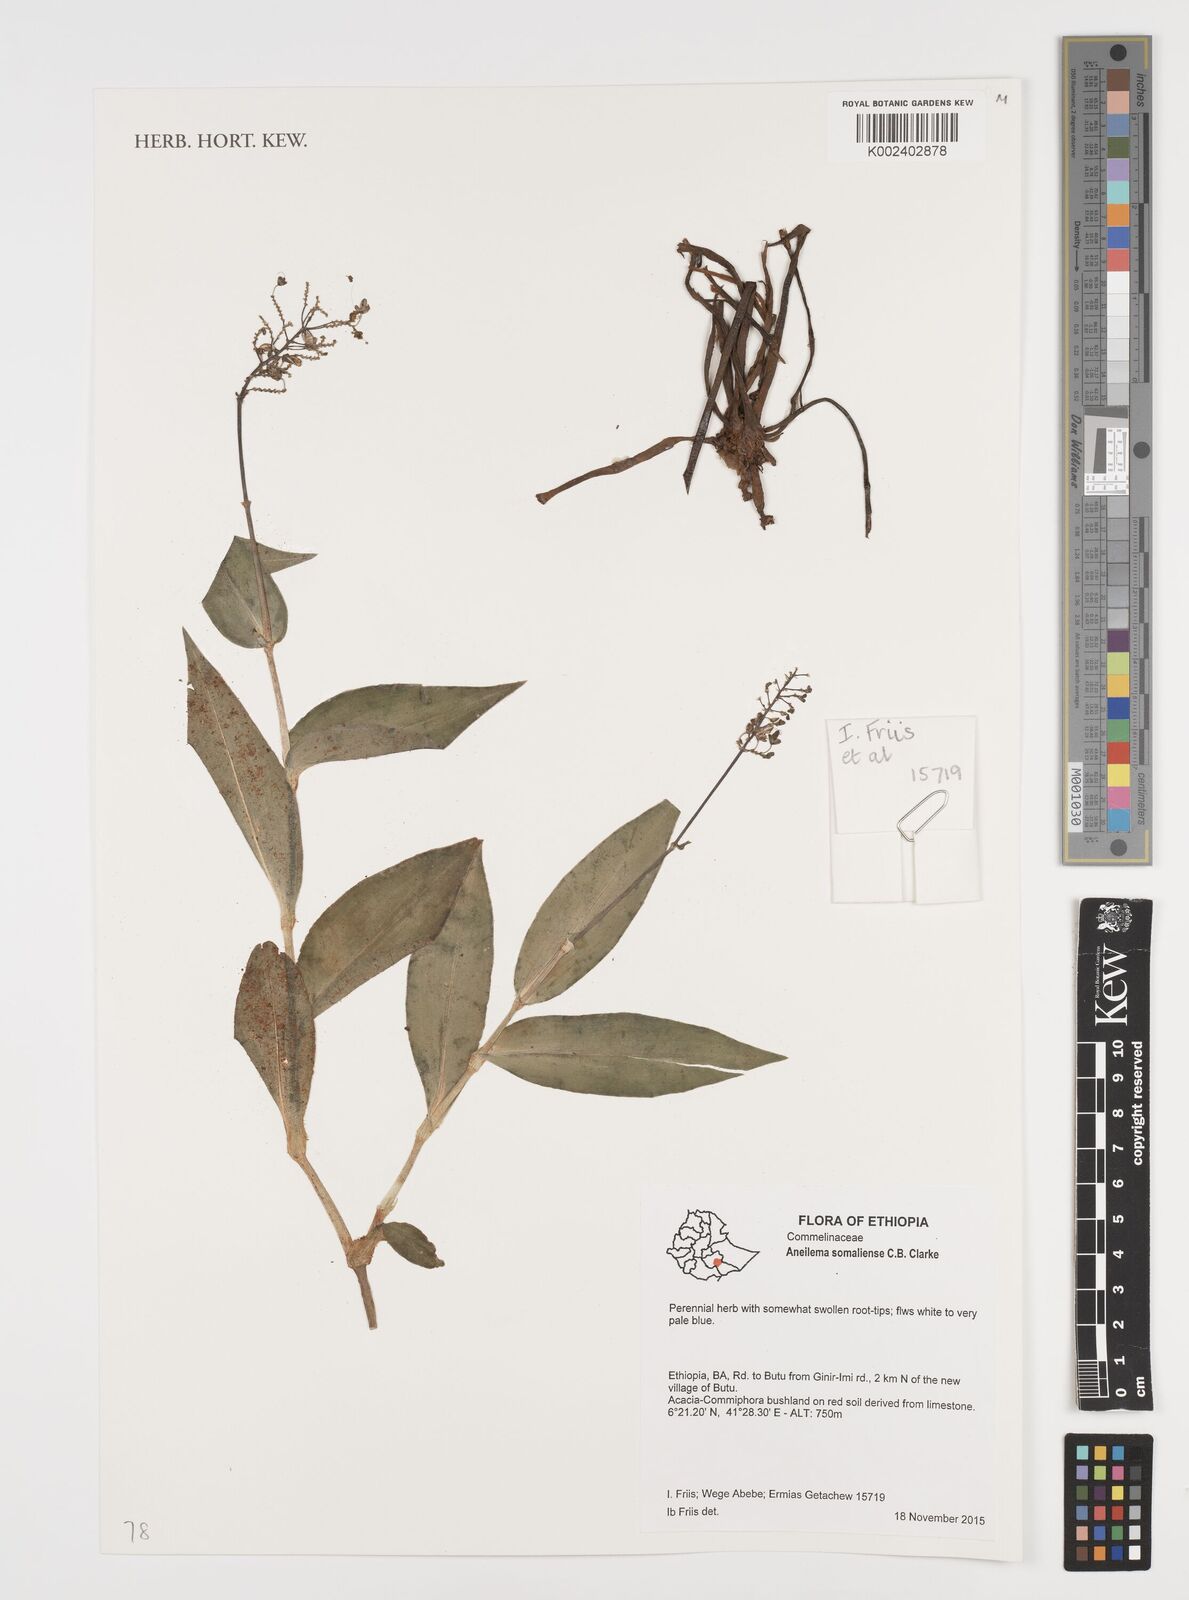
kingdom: Plantae
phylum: Tracheophyta
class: Liliopsida
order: Commelinales
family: Commelinaceae
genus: Aneilema
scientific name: Aneilema somaliense
